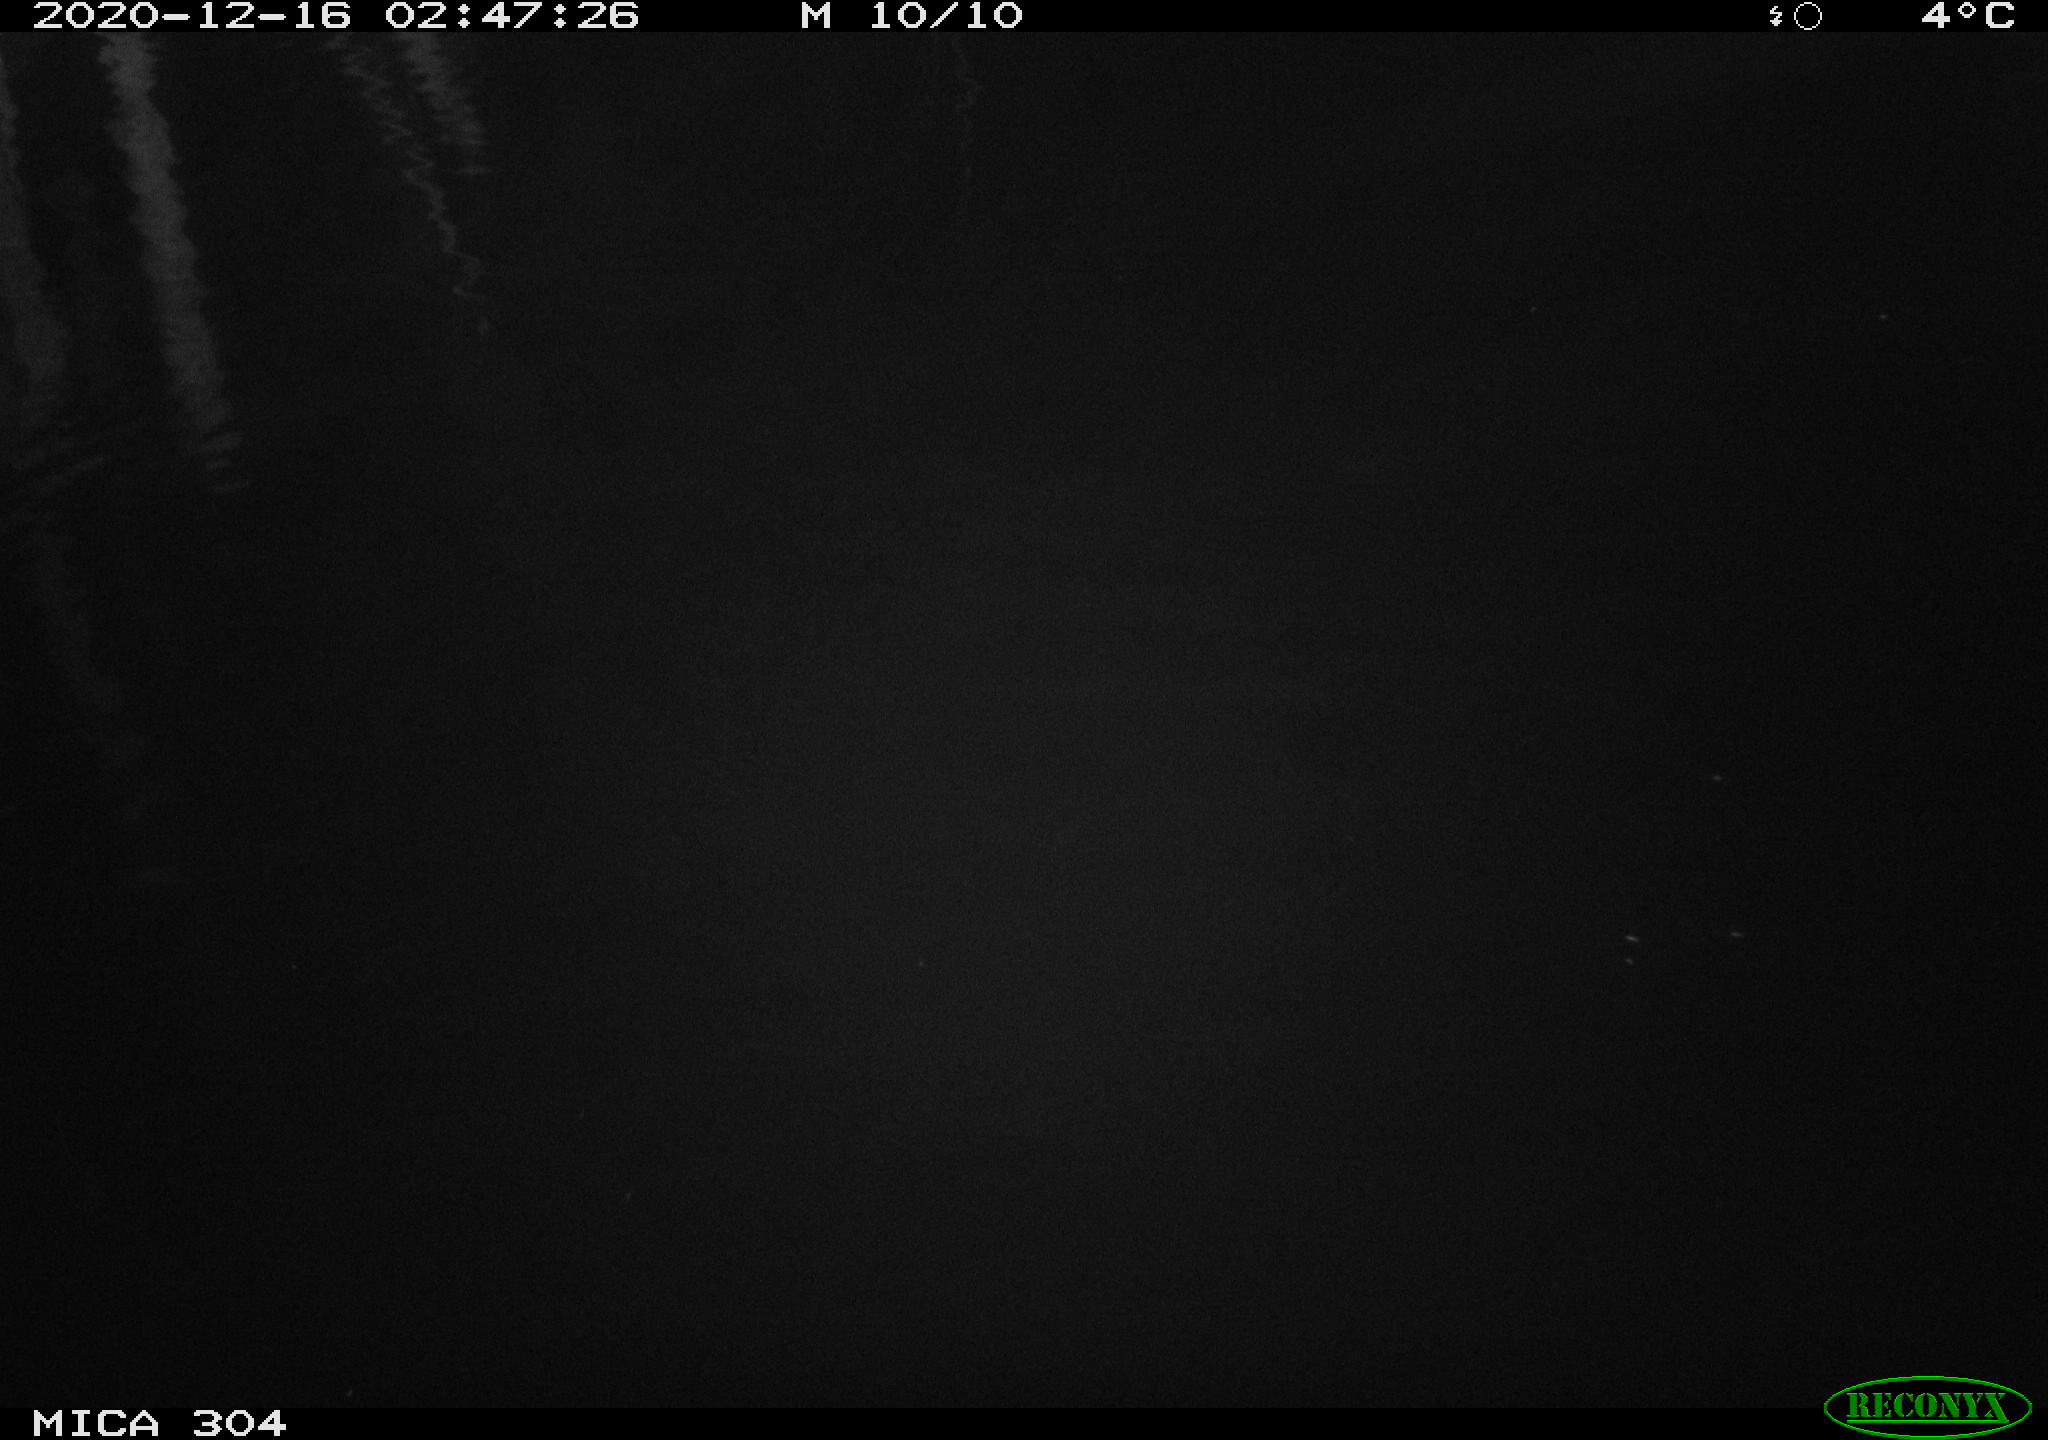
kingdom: Animalia
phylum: Chordata
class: Mammalia
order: Rodentia
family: Muridae
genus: Rattus
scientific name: Rattus norvegicus
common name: Brown rat
